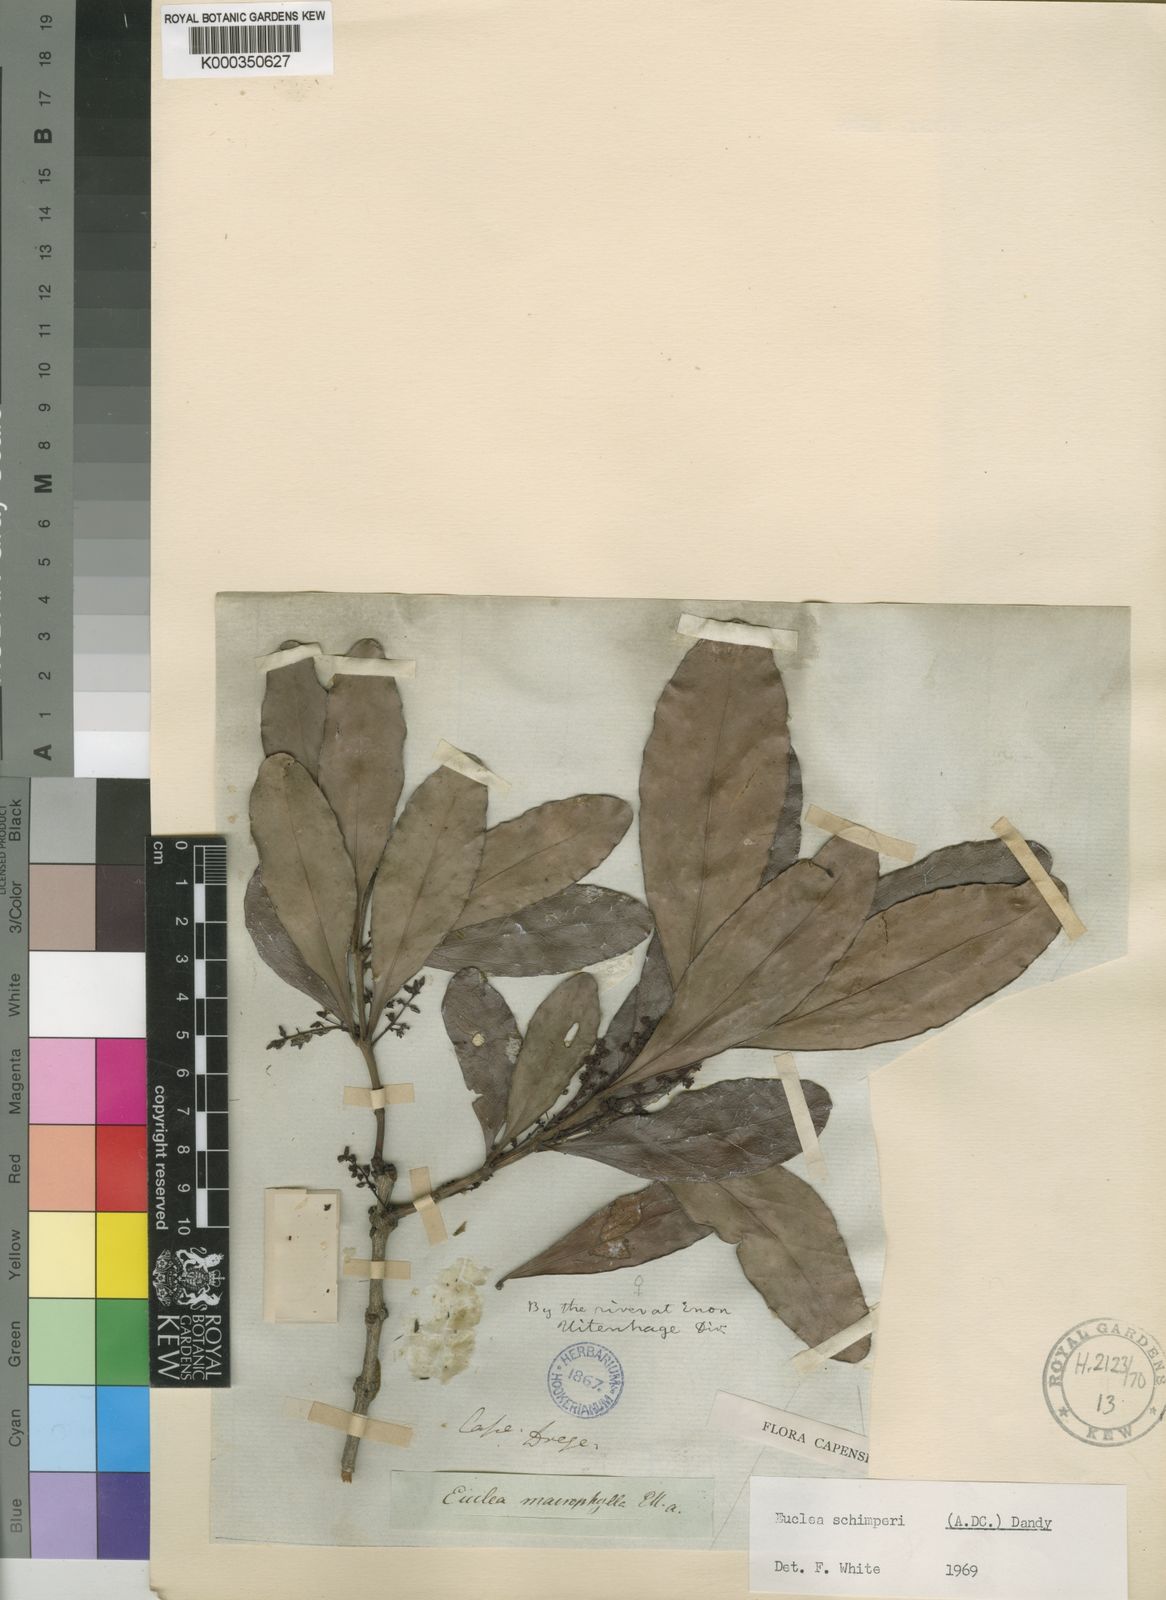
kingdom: Plantae
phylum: Tracheophyta
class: Magnoliopsida
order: Ericales
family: Ebenaceae
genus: Euclea
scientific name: Euclea racemosa
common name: Dune guarri
